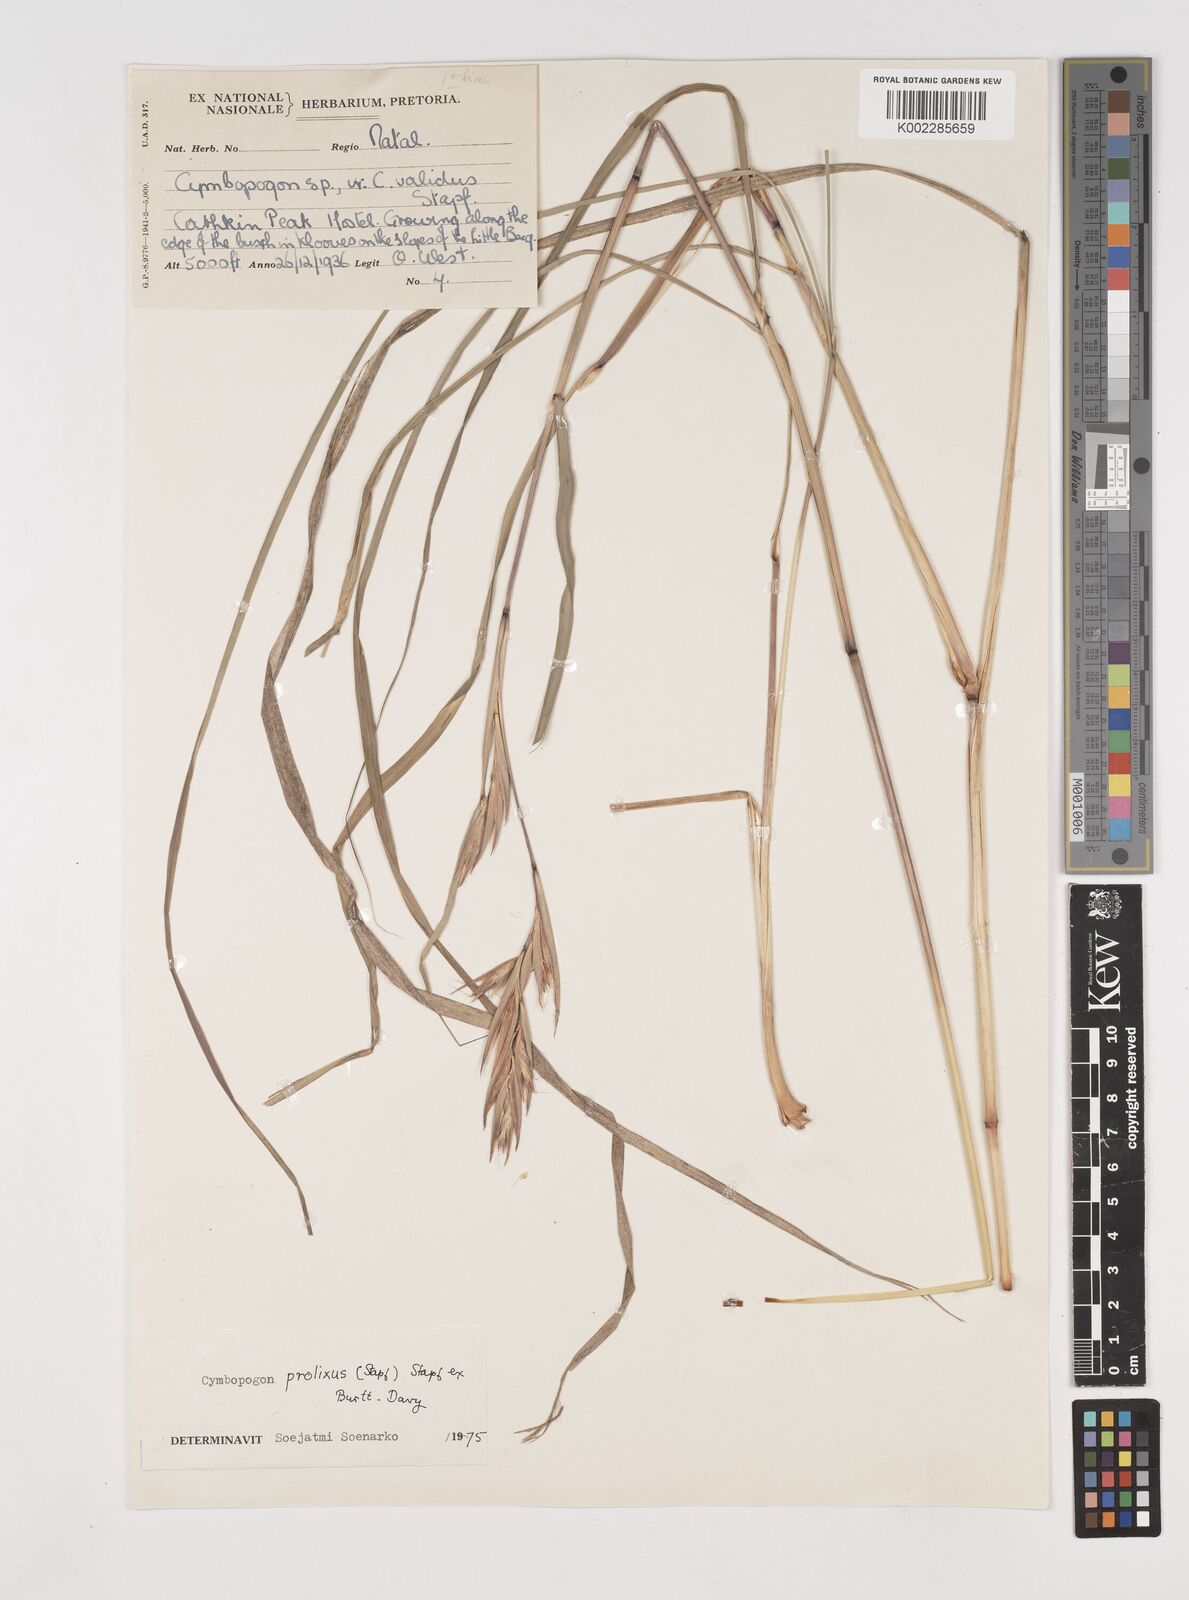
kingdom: Plantae
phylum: Tracheophyta
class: Liliopsida
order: Poales
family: Poaceae
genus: Cymbopogon
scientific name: Cymbopogon marginatus
